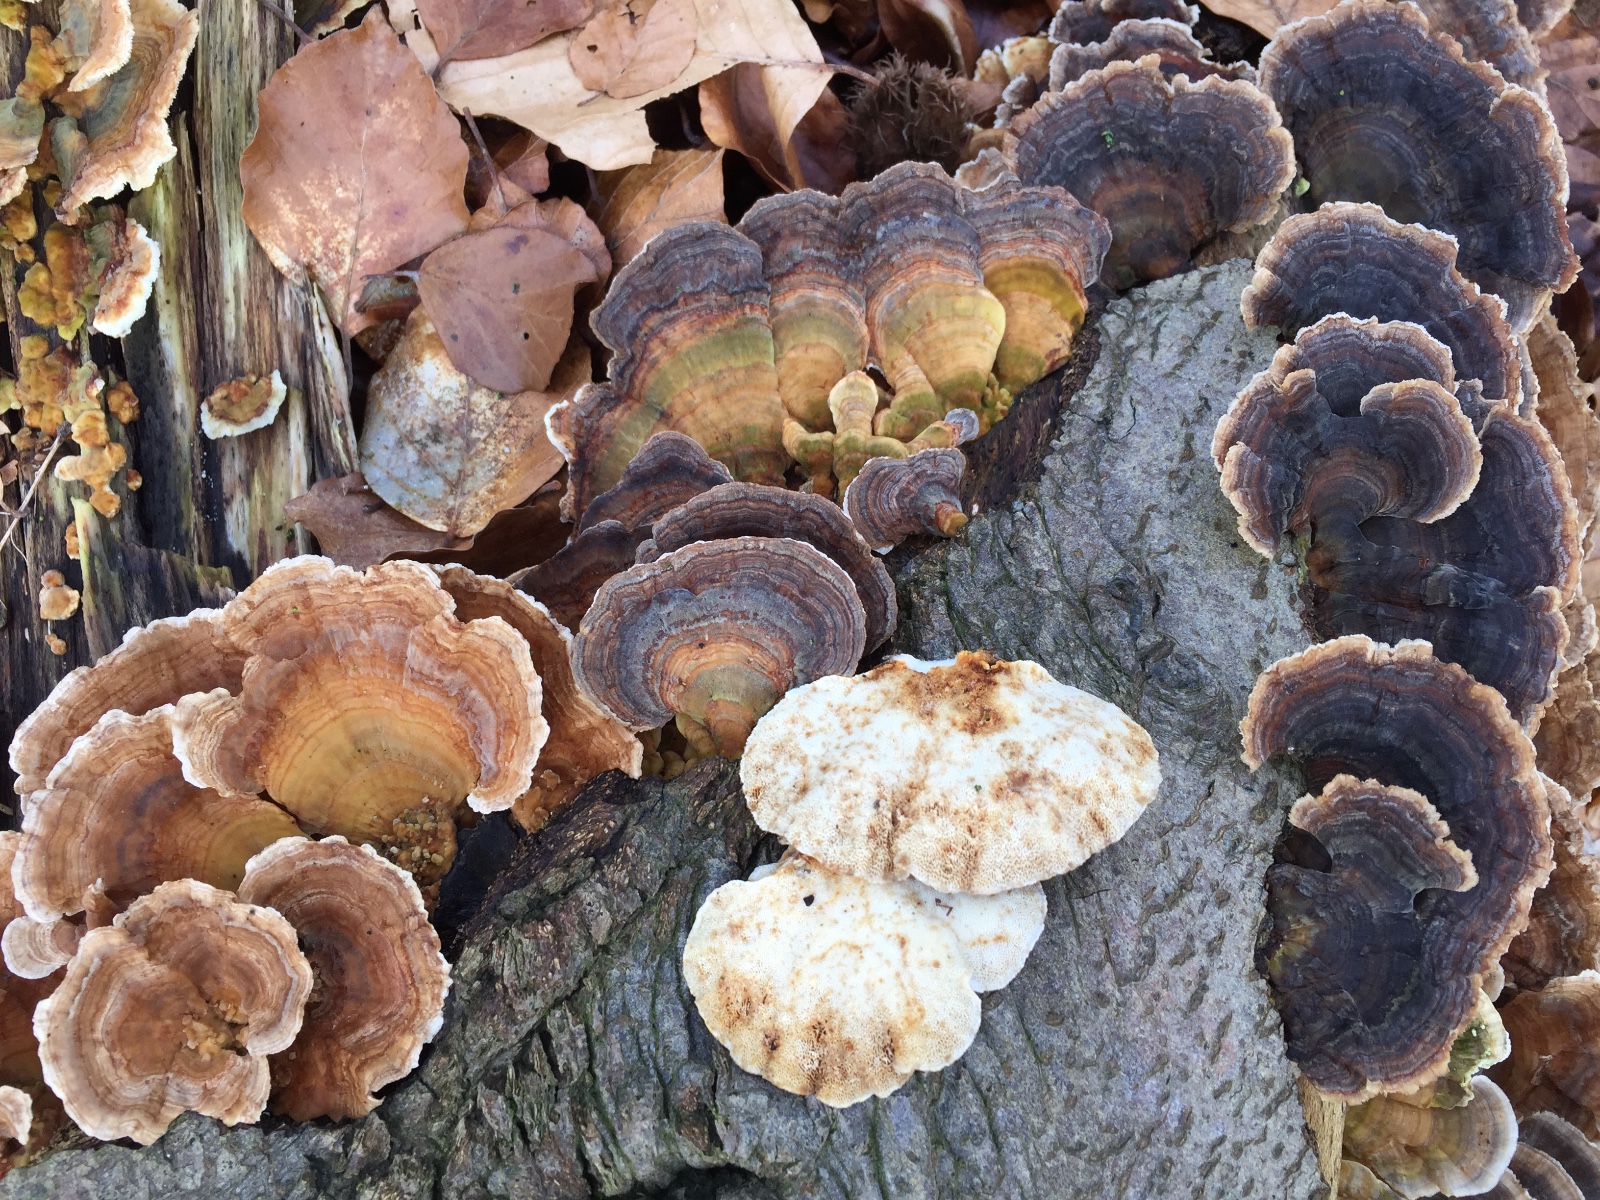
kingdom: Fungi
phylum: Basidiomycota
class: Agaricomycetes
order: Polyporales
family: Polyporaceae
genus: Trametes
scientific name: Trametes versicolor
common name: broget læderporesvamp
